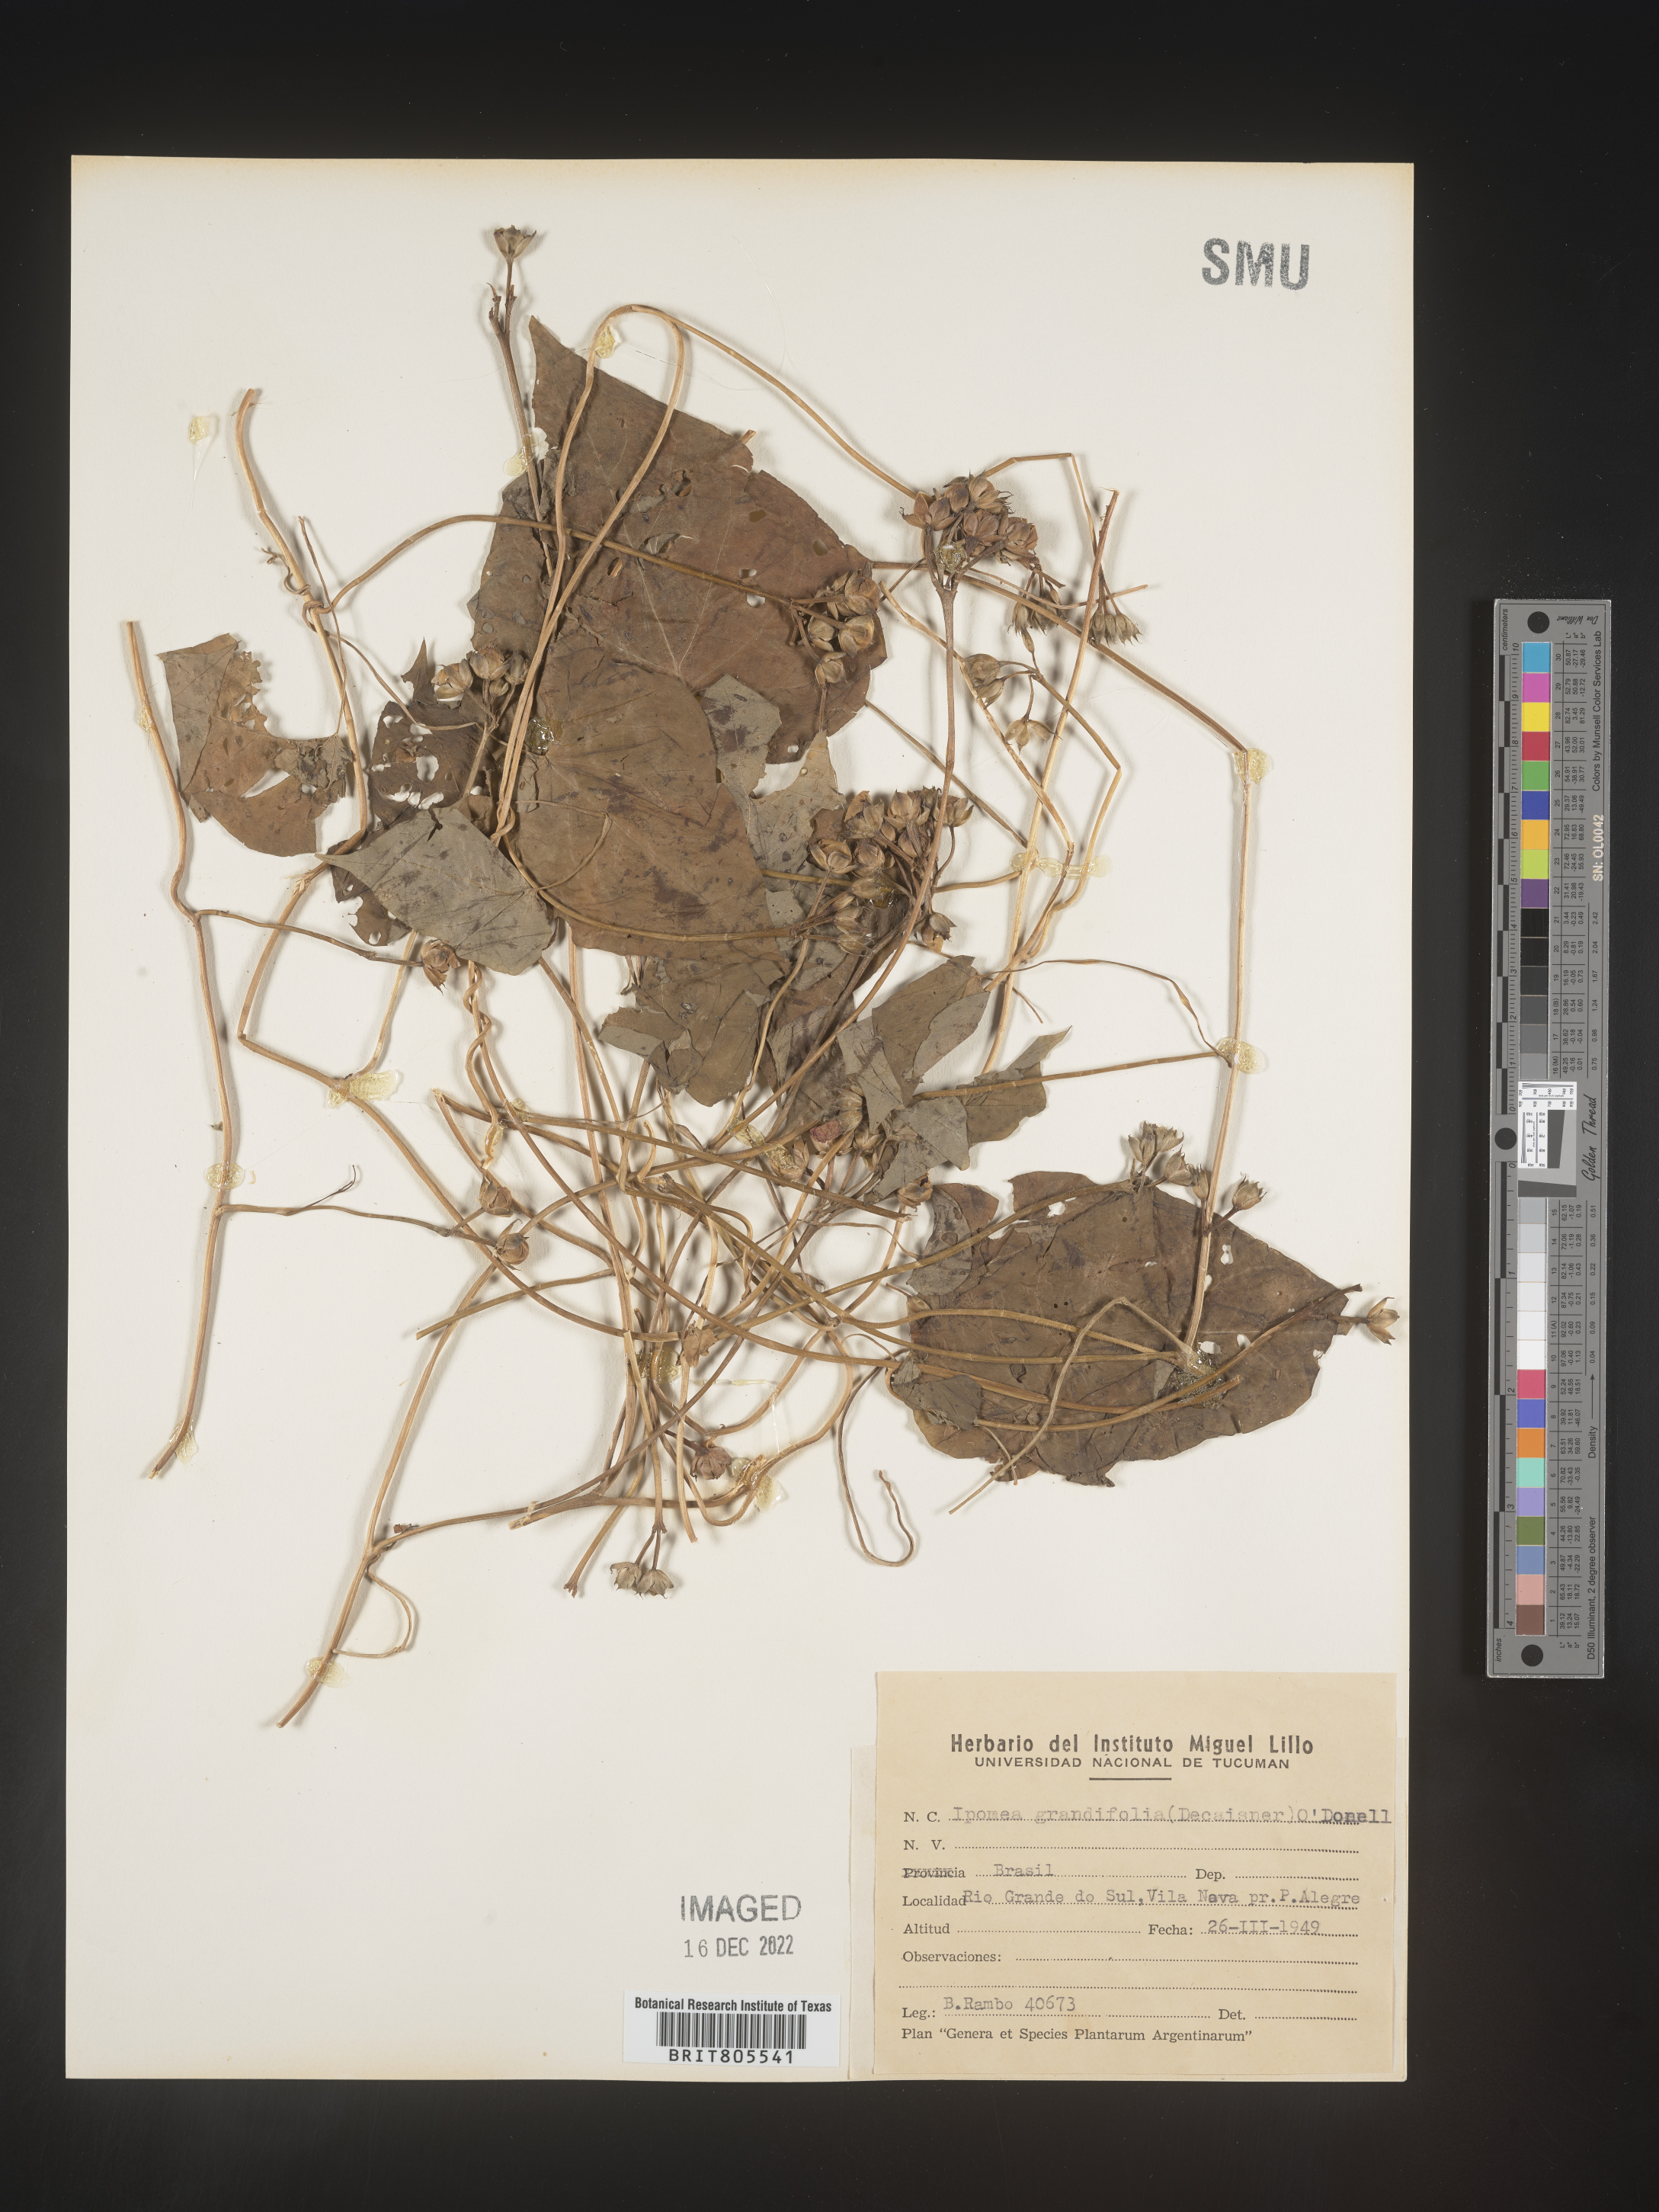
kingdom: Plantae
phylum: Tracheophyta
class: Magnoliopsida
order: Solanales
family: Convolvulaceae
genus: Ipomoea
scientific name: Ipomoea
